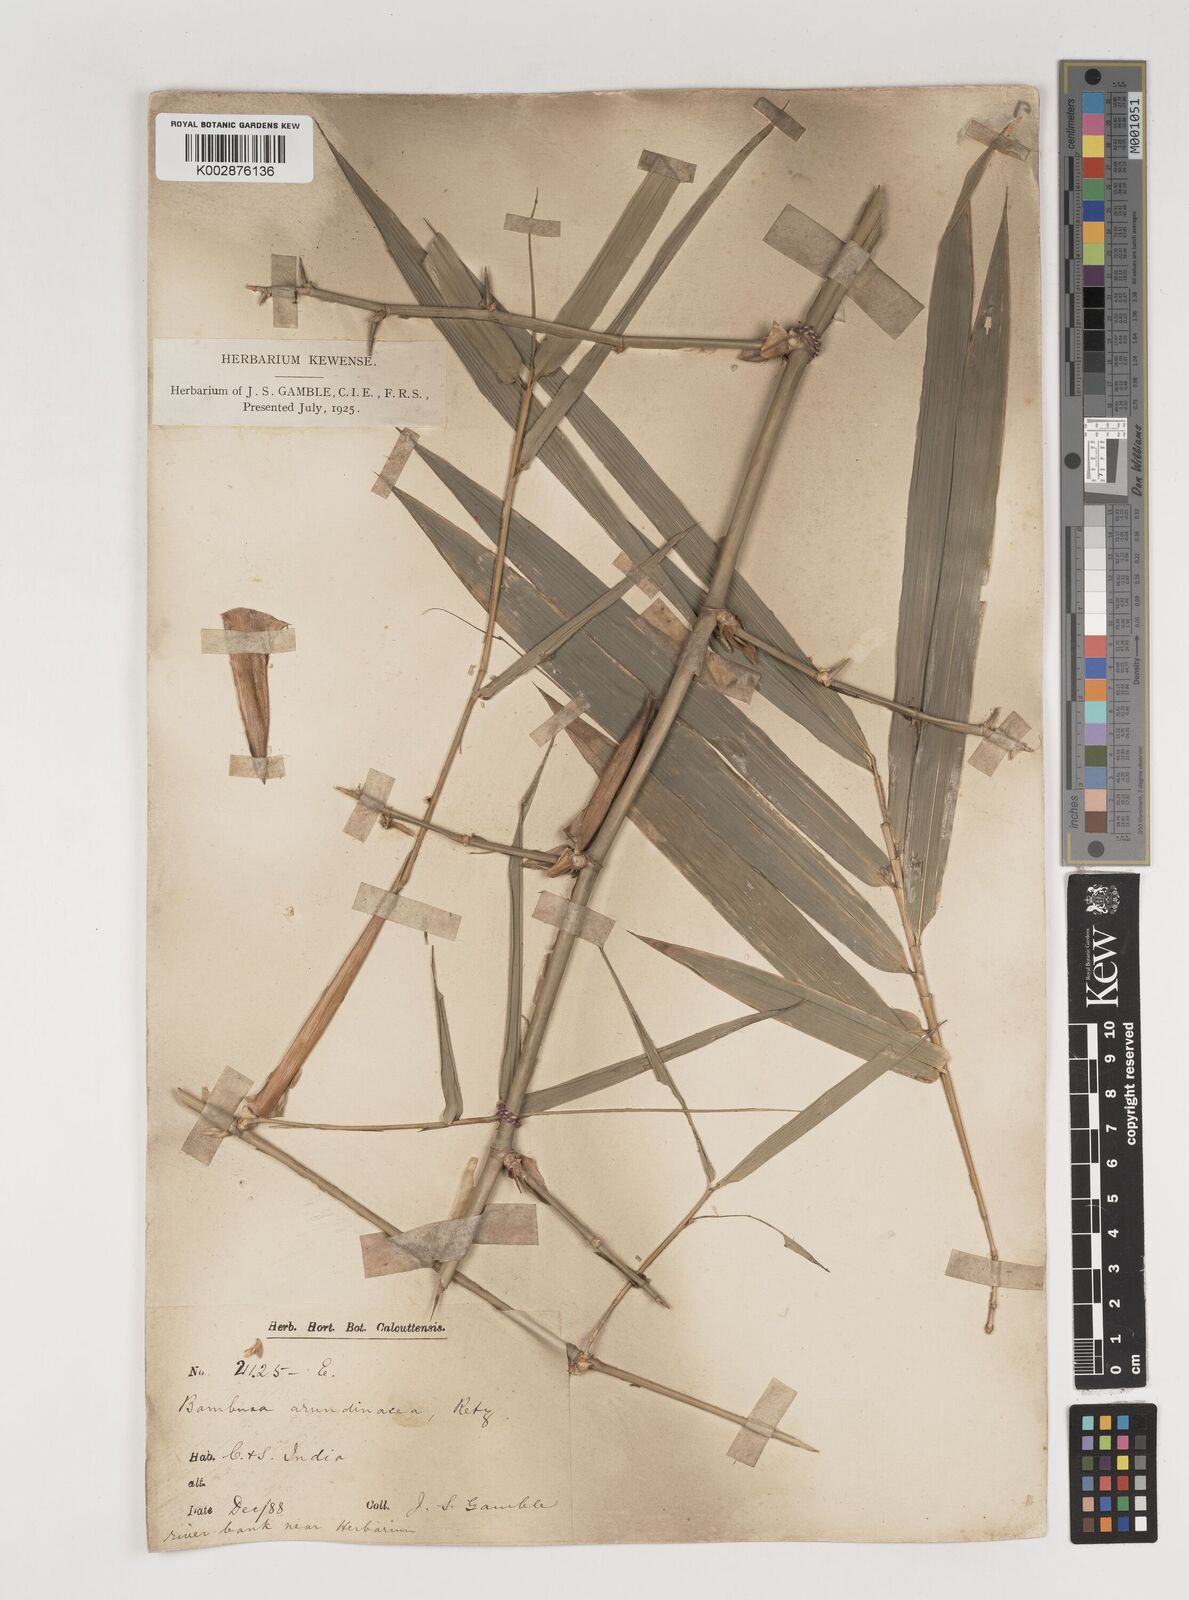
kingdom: Plantae
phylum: Tracheophyta
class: Liliopsida
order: Poales
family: Poaceae
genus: Bambusa
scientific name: Bambusa bambos
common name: Indian thorny bamboo
